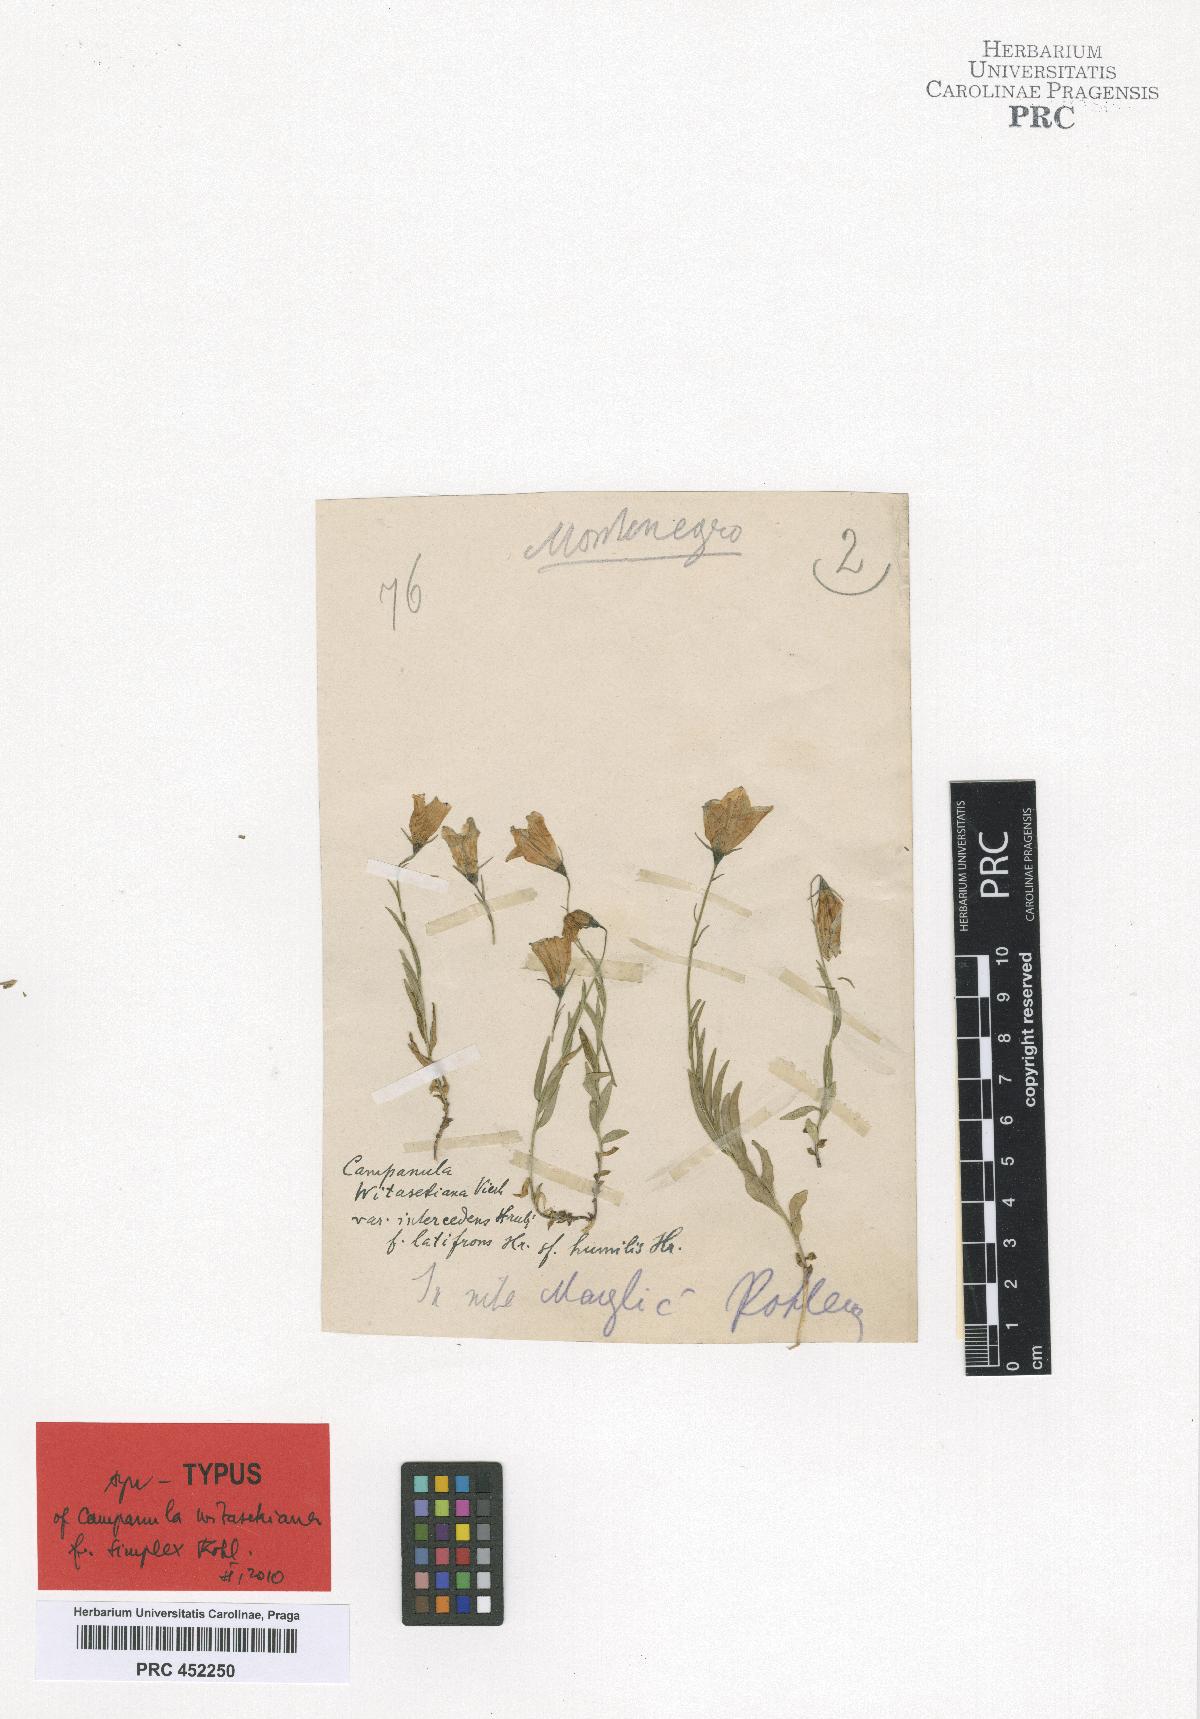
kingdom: Plantae
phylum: Tracheophyta
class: Magnoliopsida
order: Asterales
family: Campanulaceae
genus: Campanula
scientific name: Campanula witasekiana
